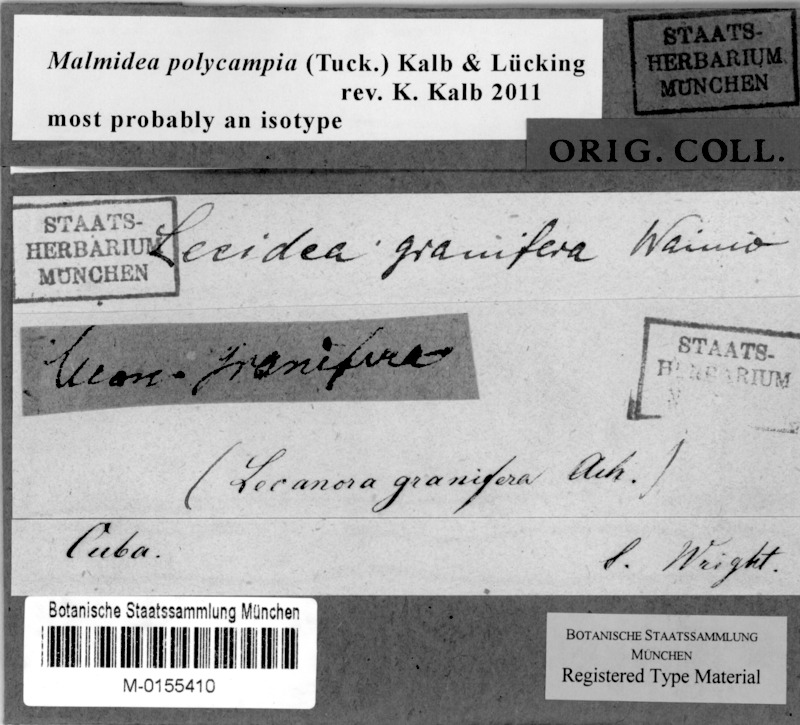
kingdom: Fungi
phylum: Ascomycota
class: Lecanoromycetes
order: Lecanorales
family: Malmideaceae
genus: Malmidea
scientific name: Malmidea polycampia
